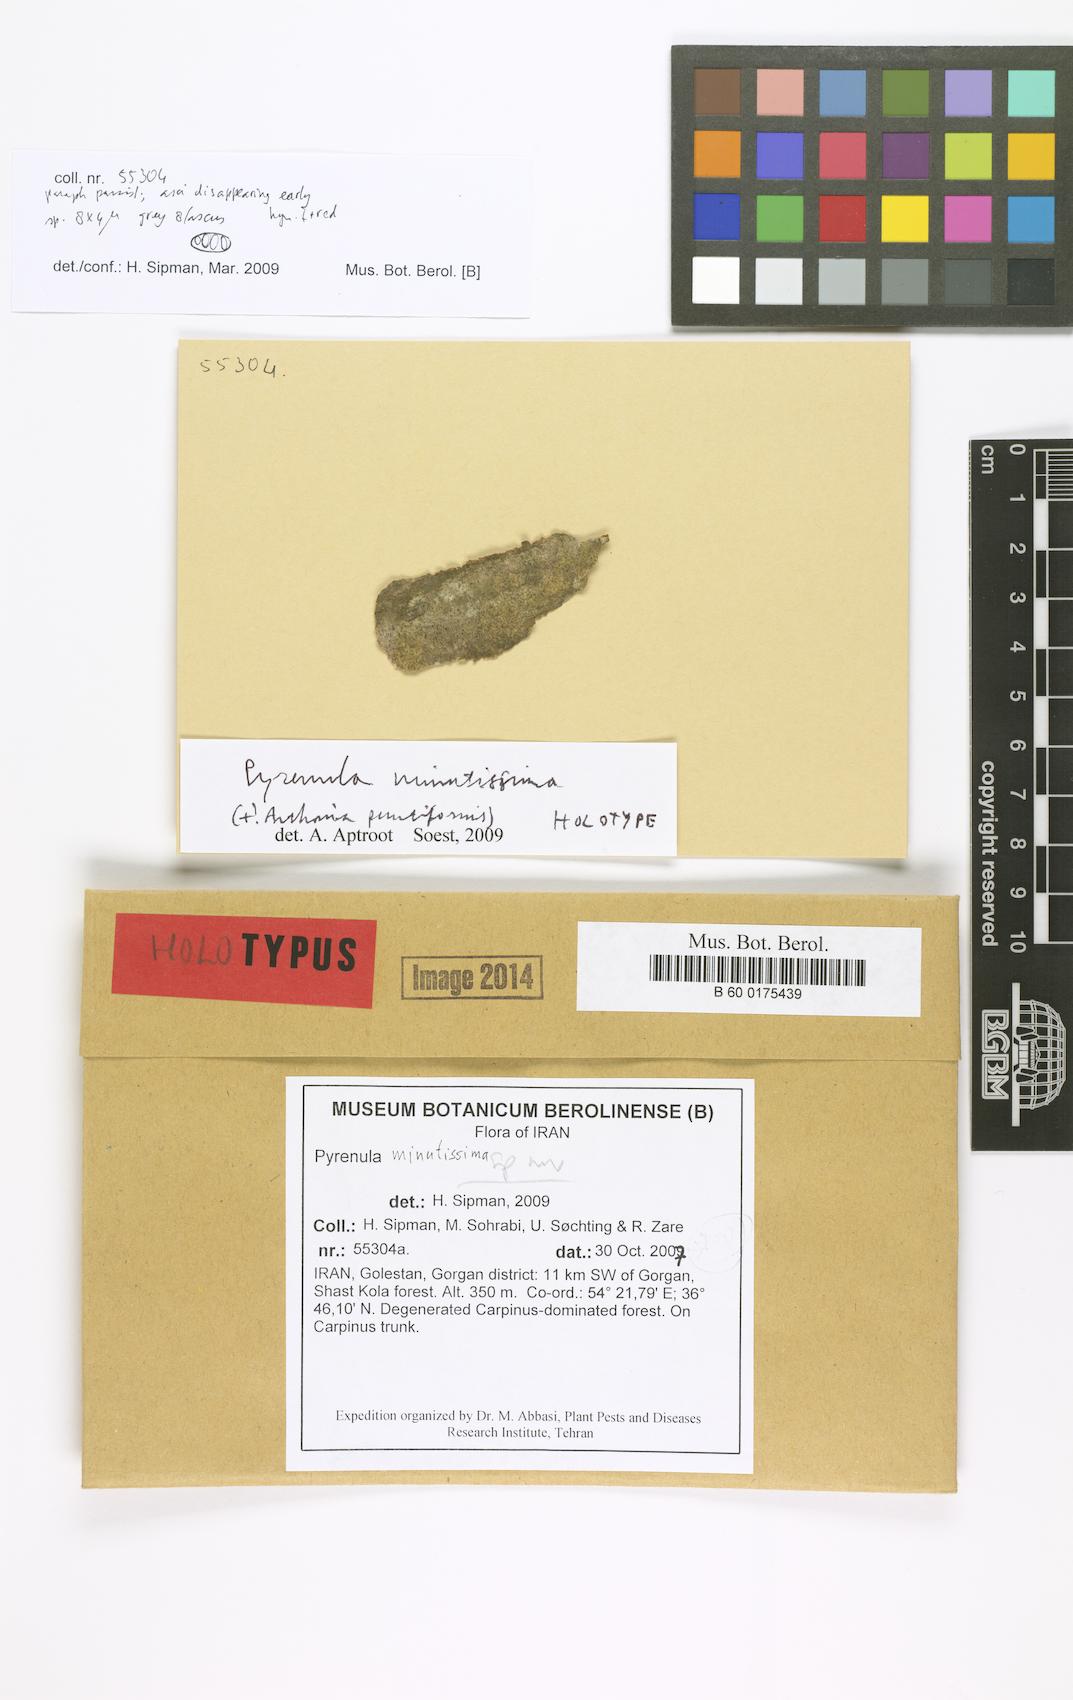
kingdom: Fungi
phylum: Ascomycota
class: Eurotiomycetes
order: Pyrenulales
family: Pyrenulaceae
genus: Pyrenula
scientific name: Pyrenula minutissima
